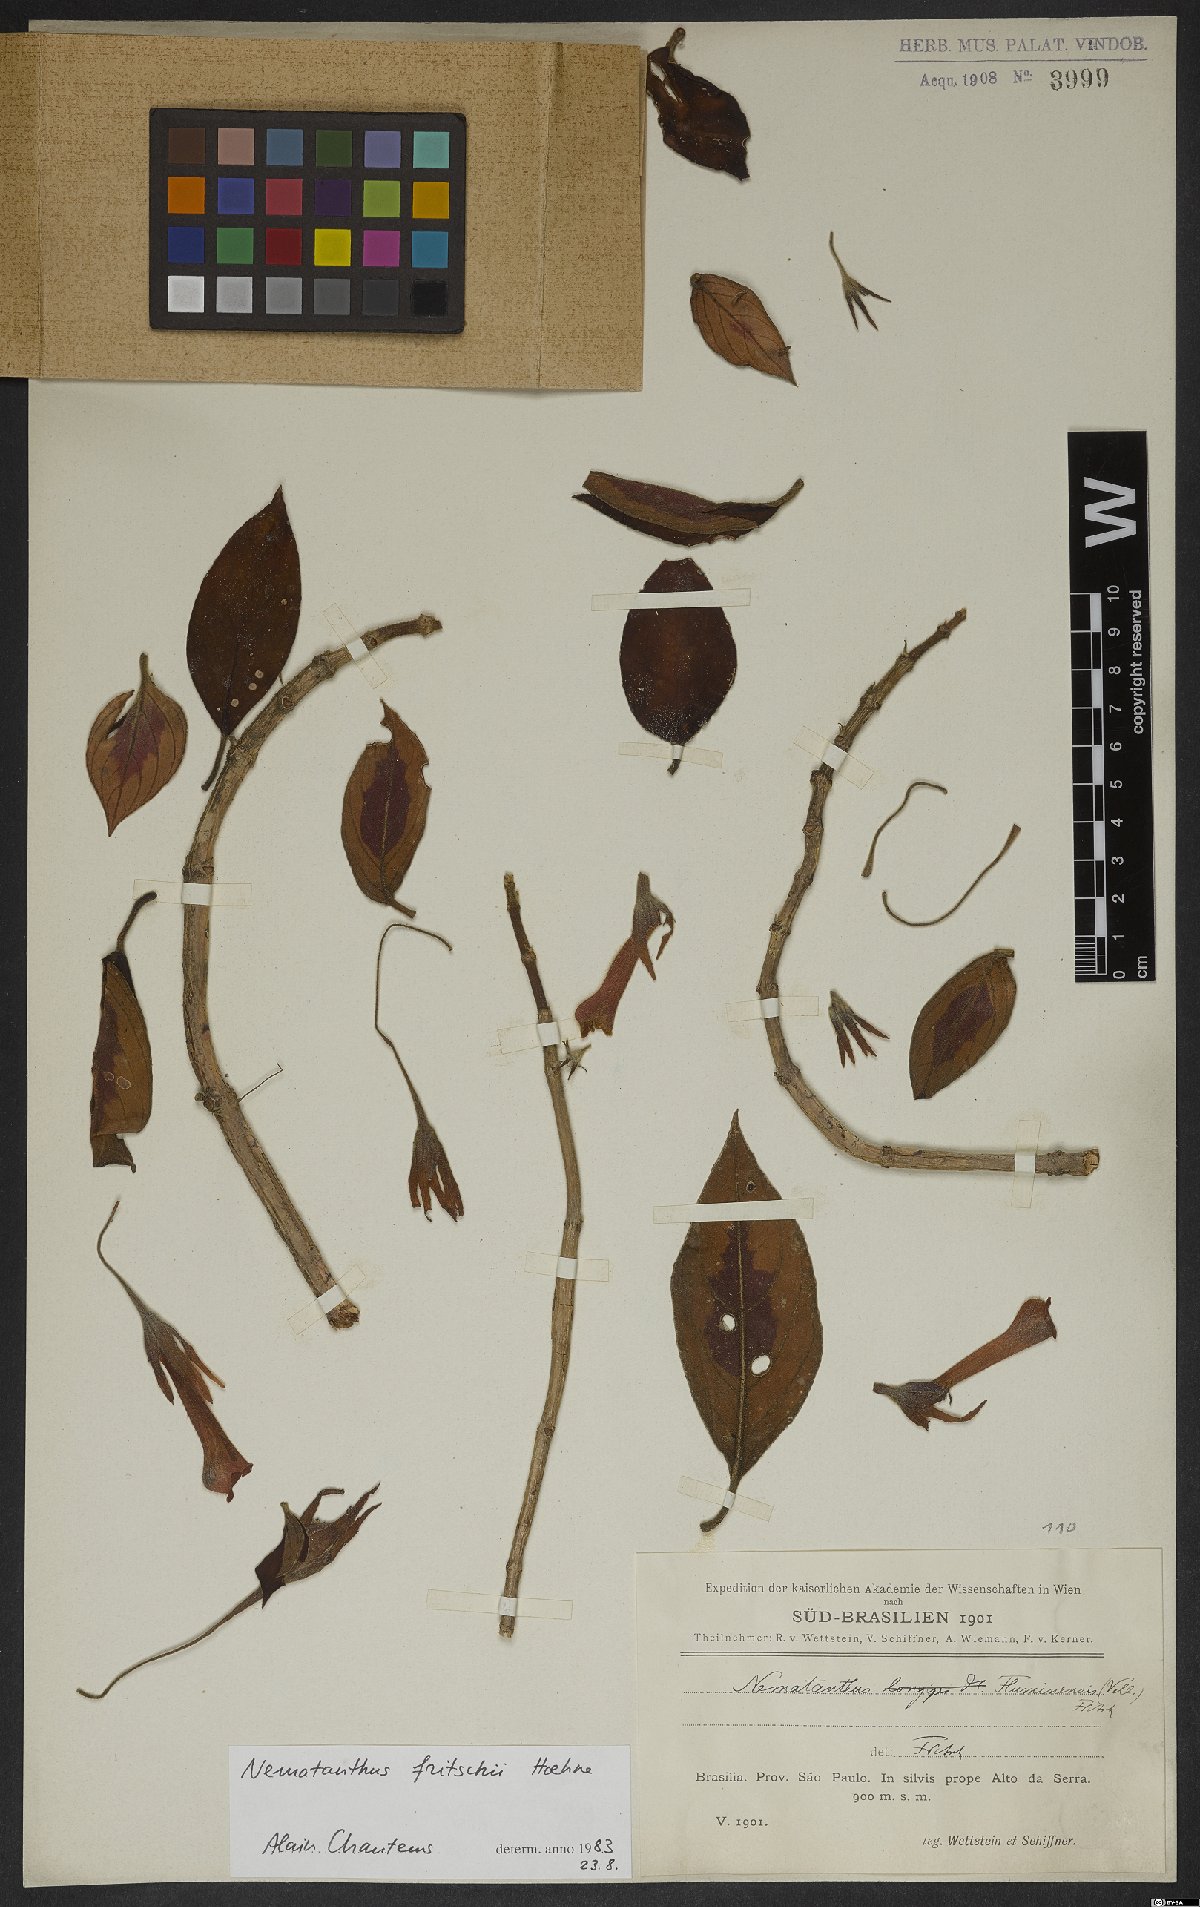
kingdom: Plantae
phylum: Tracheophyta
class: Magnoliopsida
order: Lamiales
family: Gesneriaceae
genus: Nematanthus
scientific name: Nematanthus fritschii
